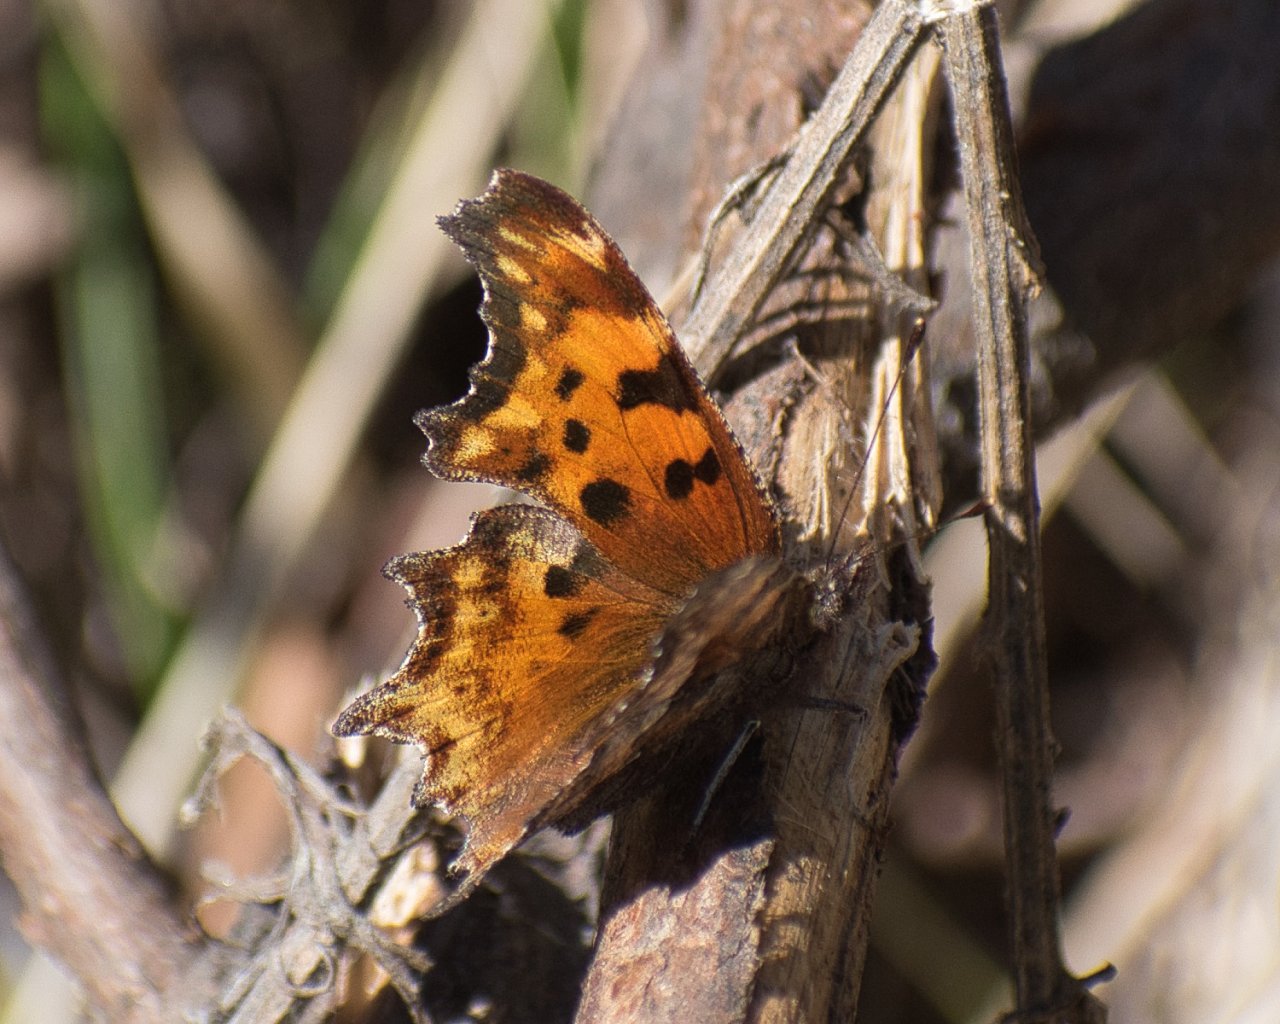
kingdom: Animalia
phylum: Arthropoda
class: Insecta
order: Lepidoptera
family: Nymphalidae
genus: Polygonia
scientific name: Polygonia gracilis
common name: Hoary Comma
